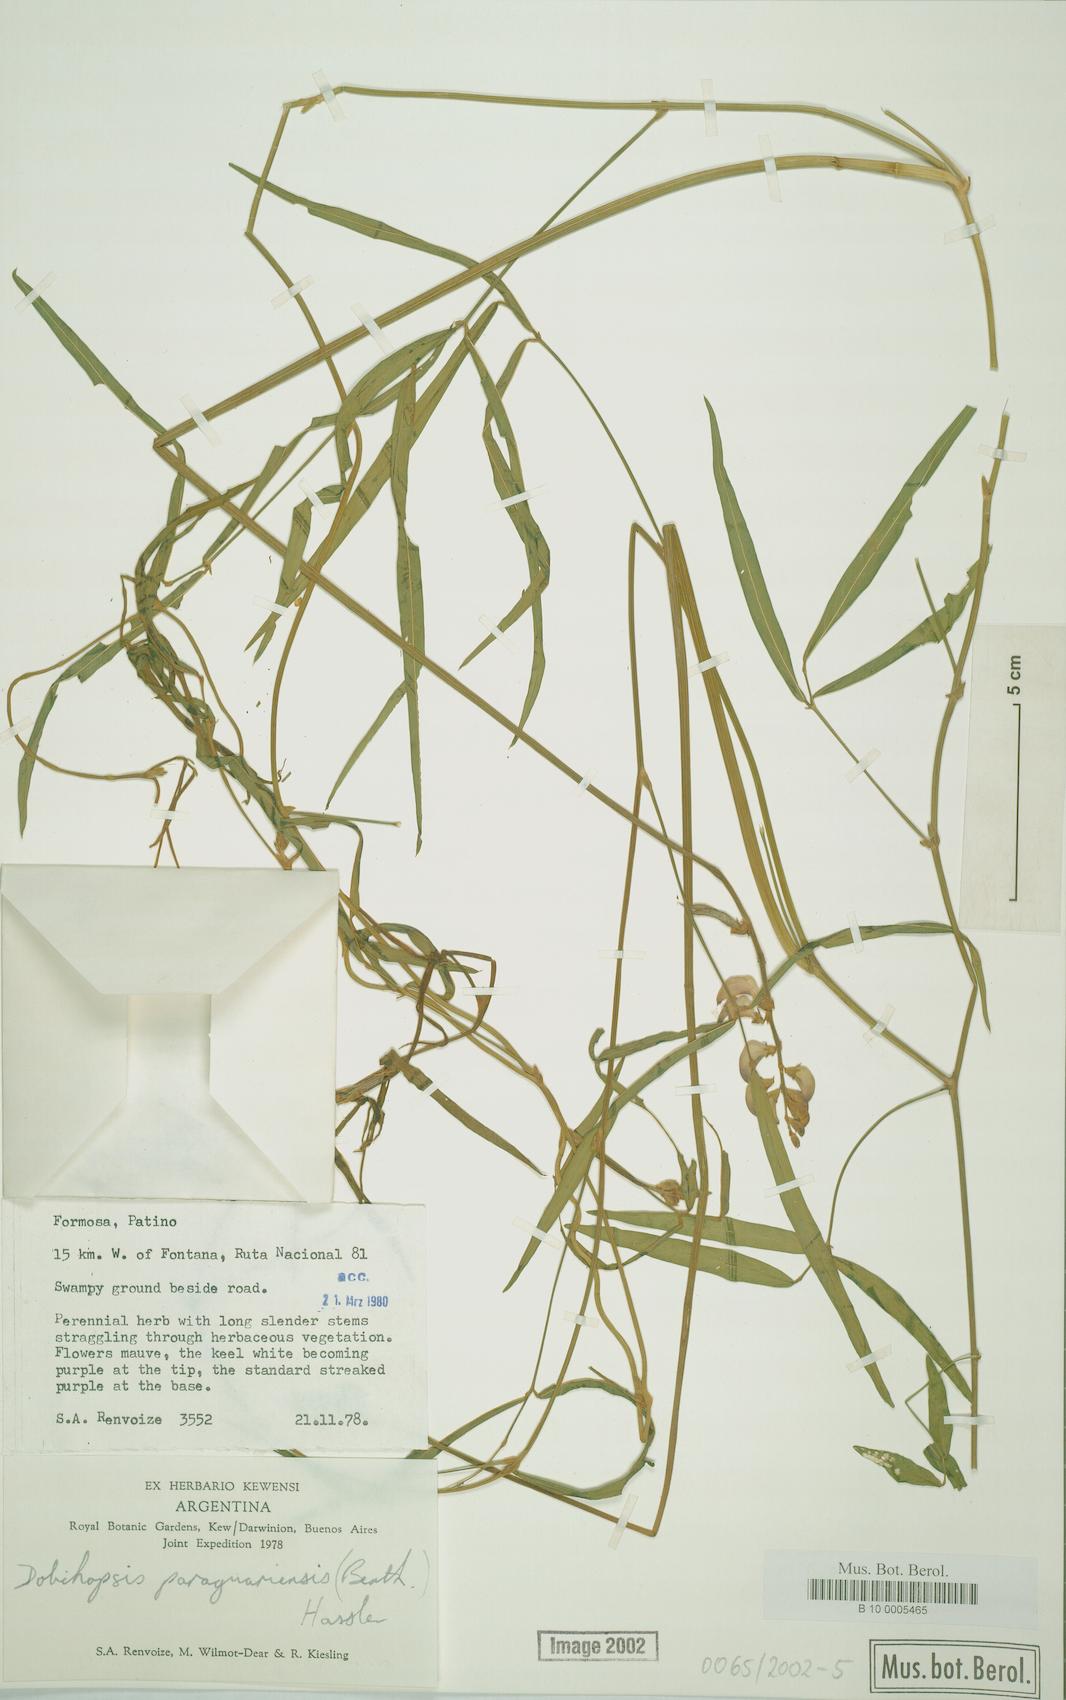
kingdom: Plantae
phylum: Tracheophyta
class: Magnoliopsida
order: Fabales
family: Fabaceae
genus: Dolichopsis
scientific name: Dolichopsis paraguariensis
